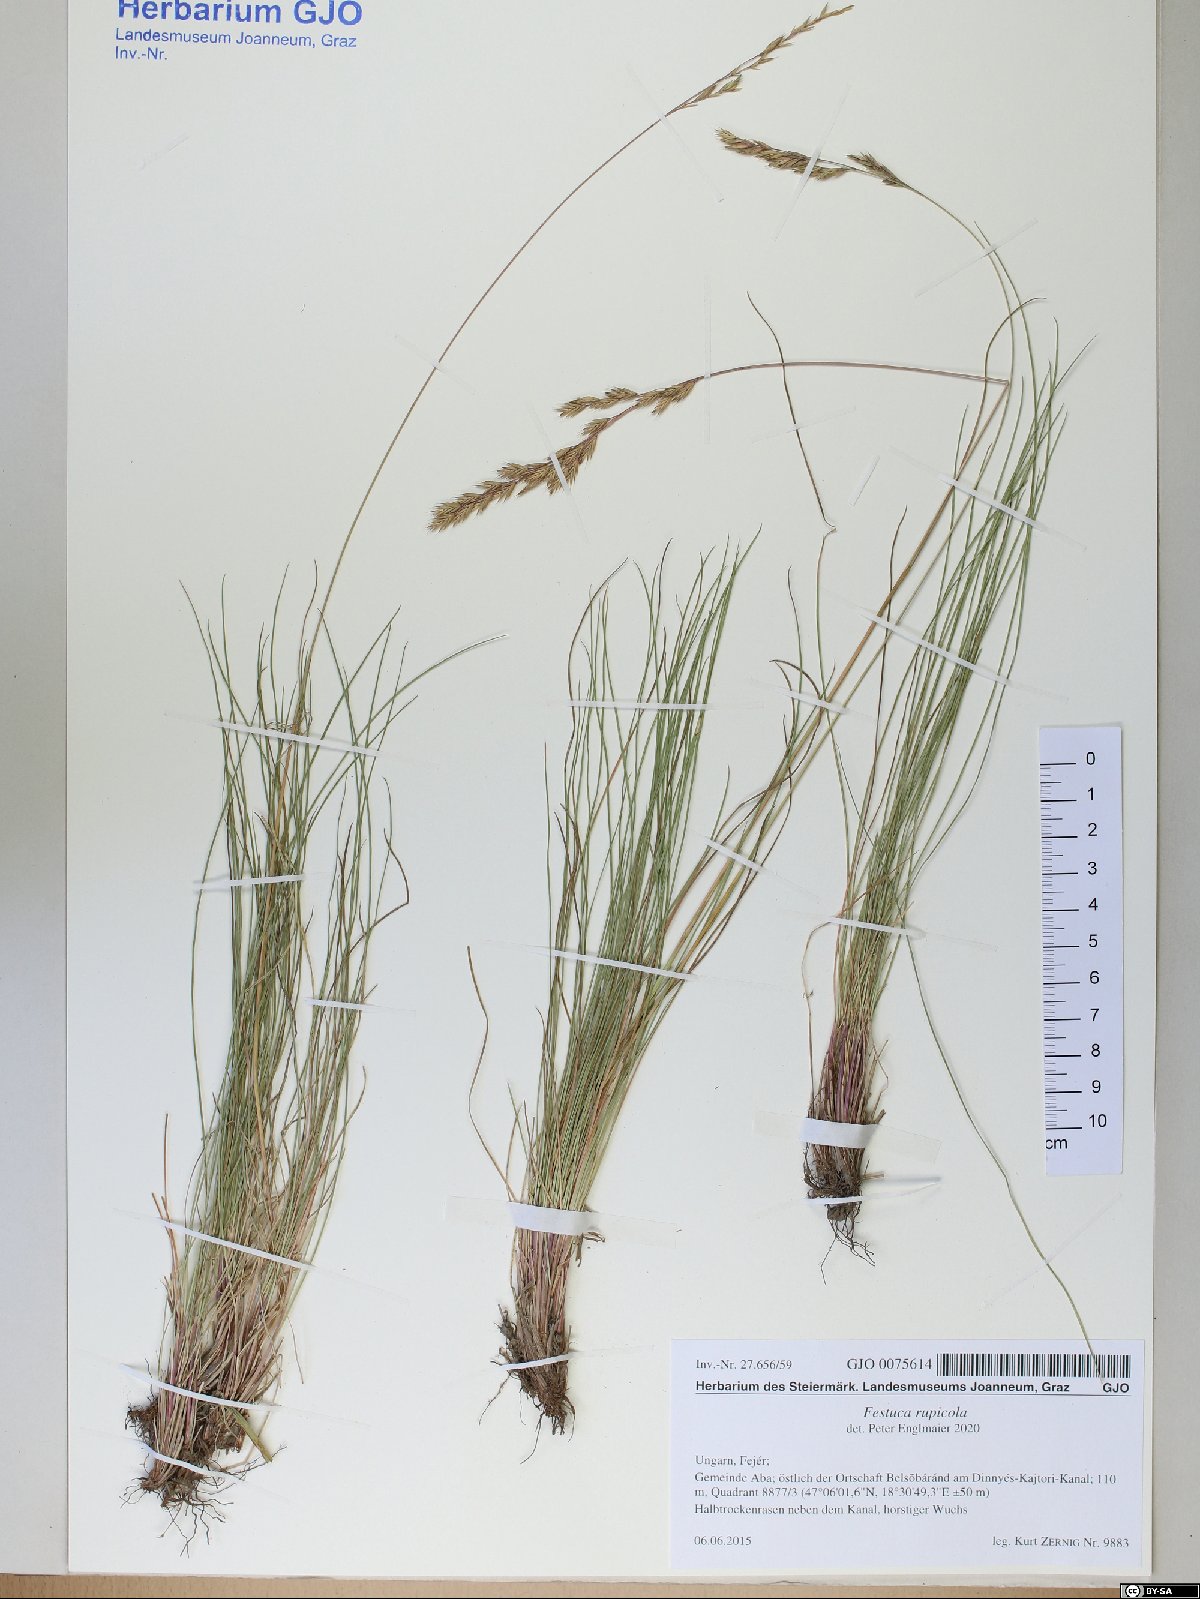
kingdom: Plantae
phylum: Tracheophyta
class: Liliopsida
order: Poales
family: Poaceae
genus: Festuca
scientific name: Festuca rupicola
